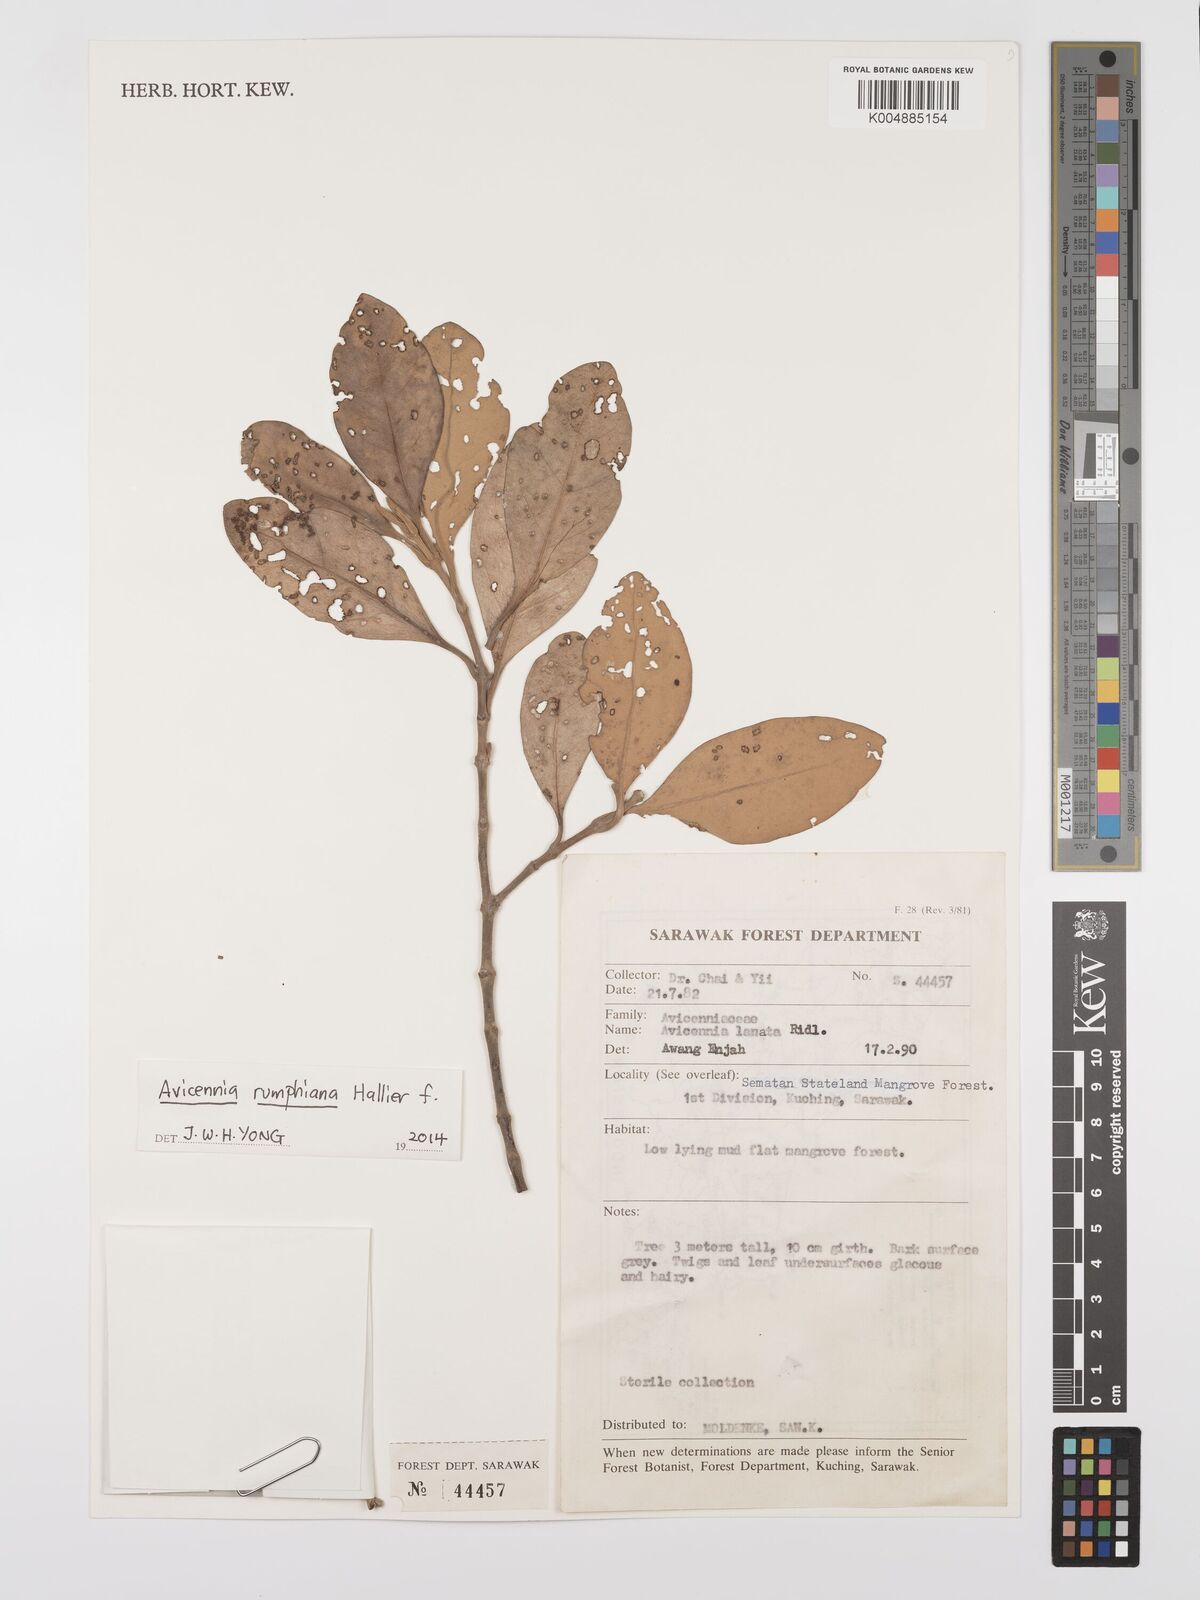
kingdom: Plantae
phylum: Tracheophyta
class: Magnoliopsida
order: Lamiales
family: Acanthaceae
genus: Avicennia
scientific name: Avicennia marina
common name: Gray mangrove
